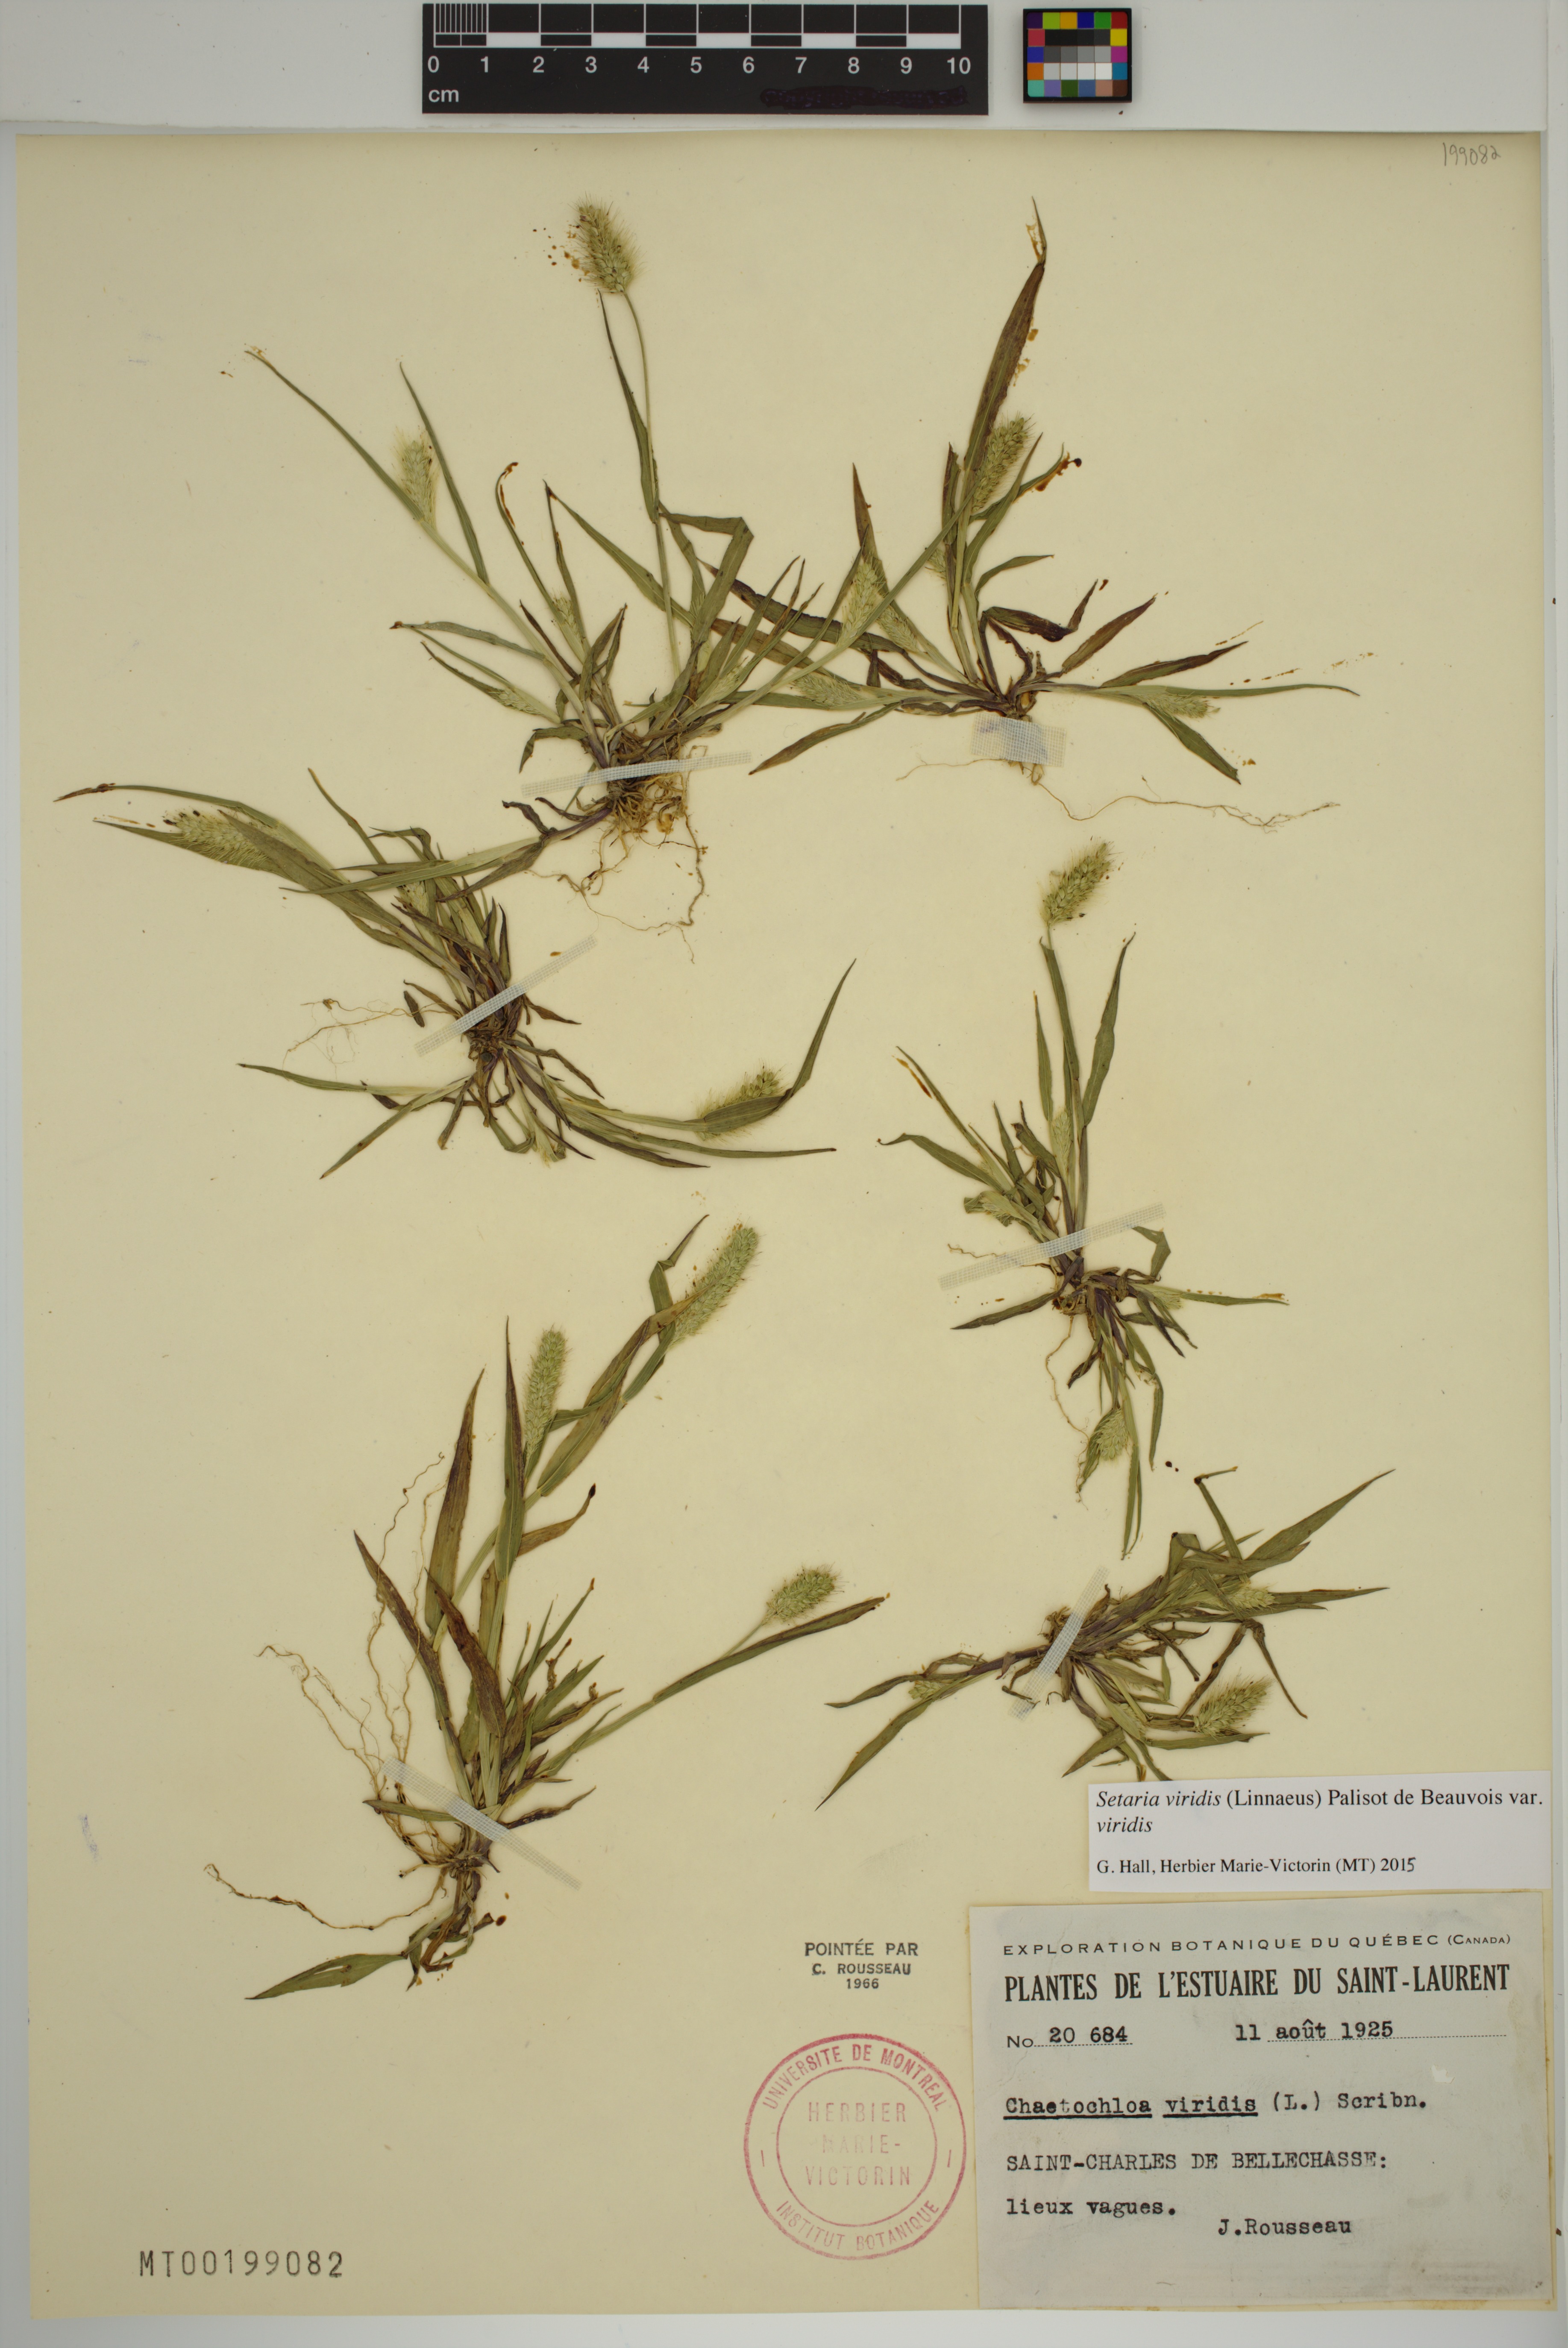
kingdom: Plantae
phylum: Tracheophyta
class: Liliopsida
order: Poales
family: Poaceae
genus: Setaria
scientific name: Setaria viridis
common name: Green bristlegrass
